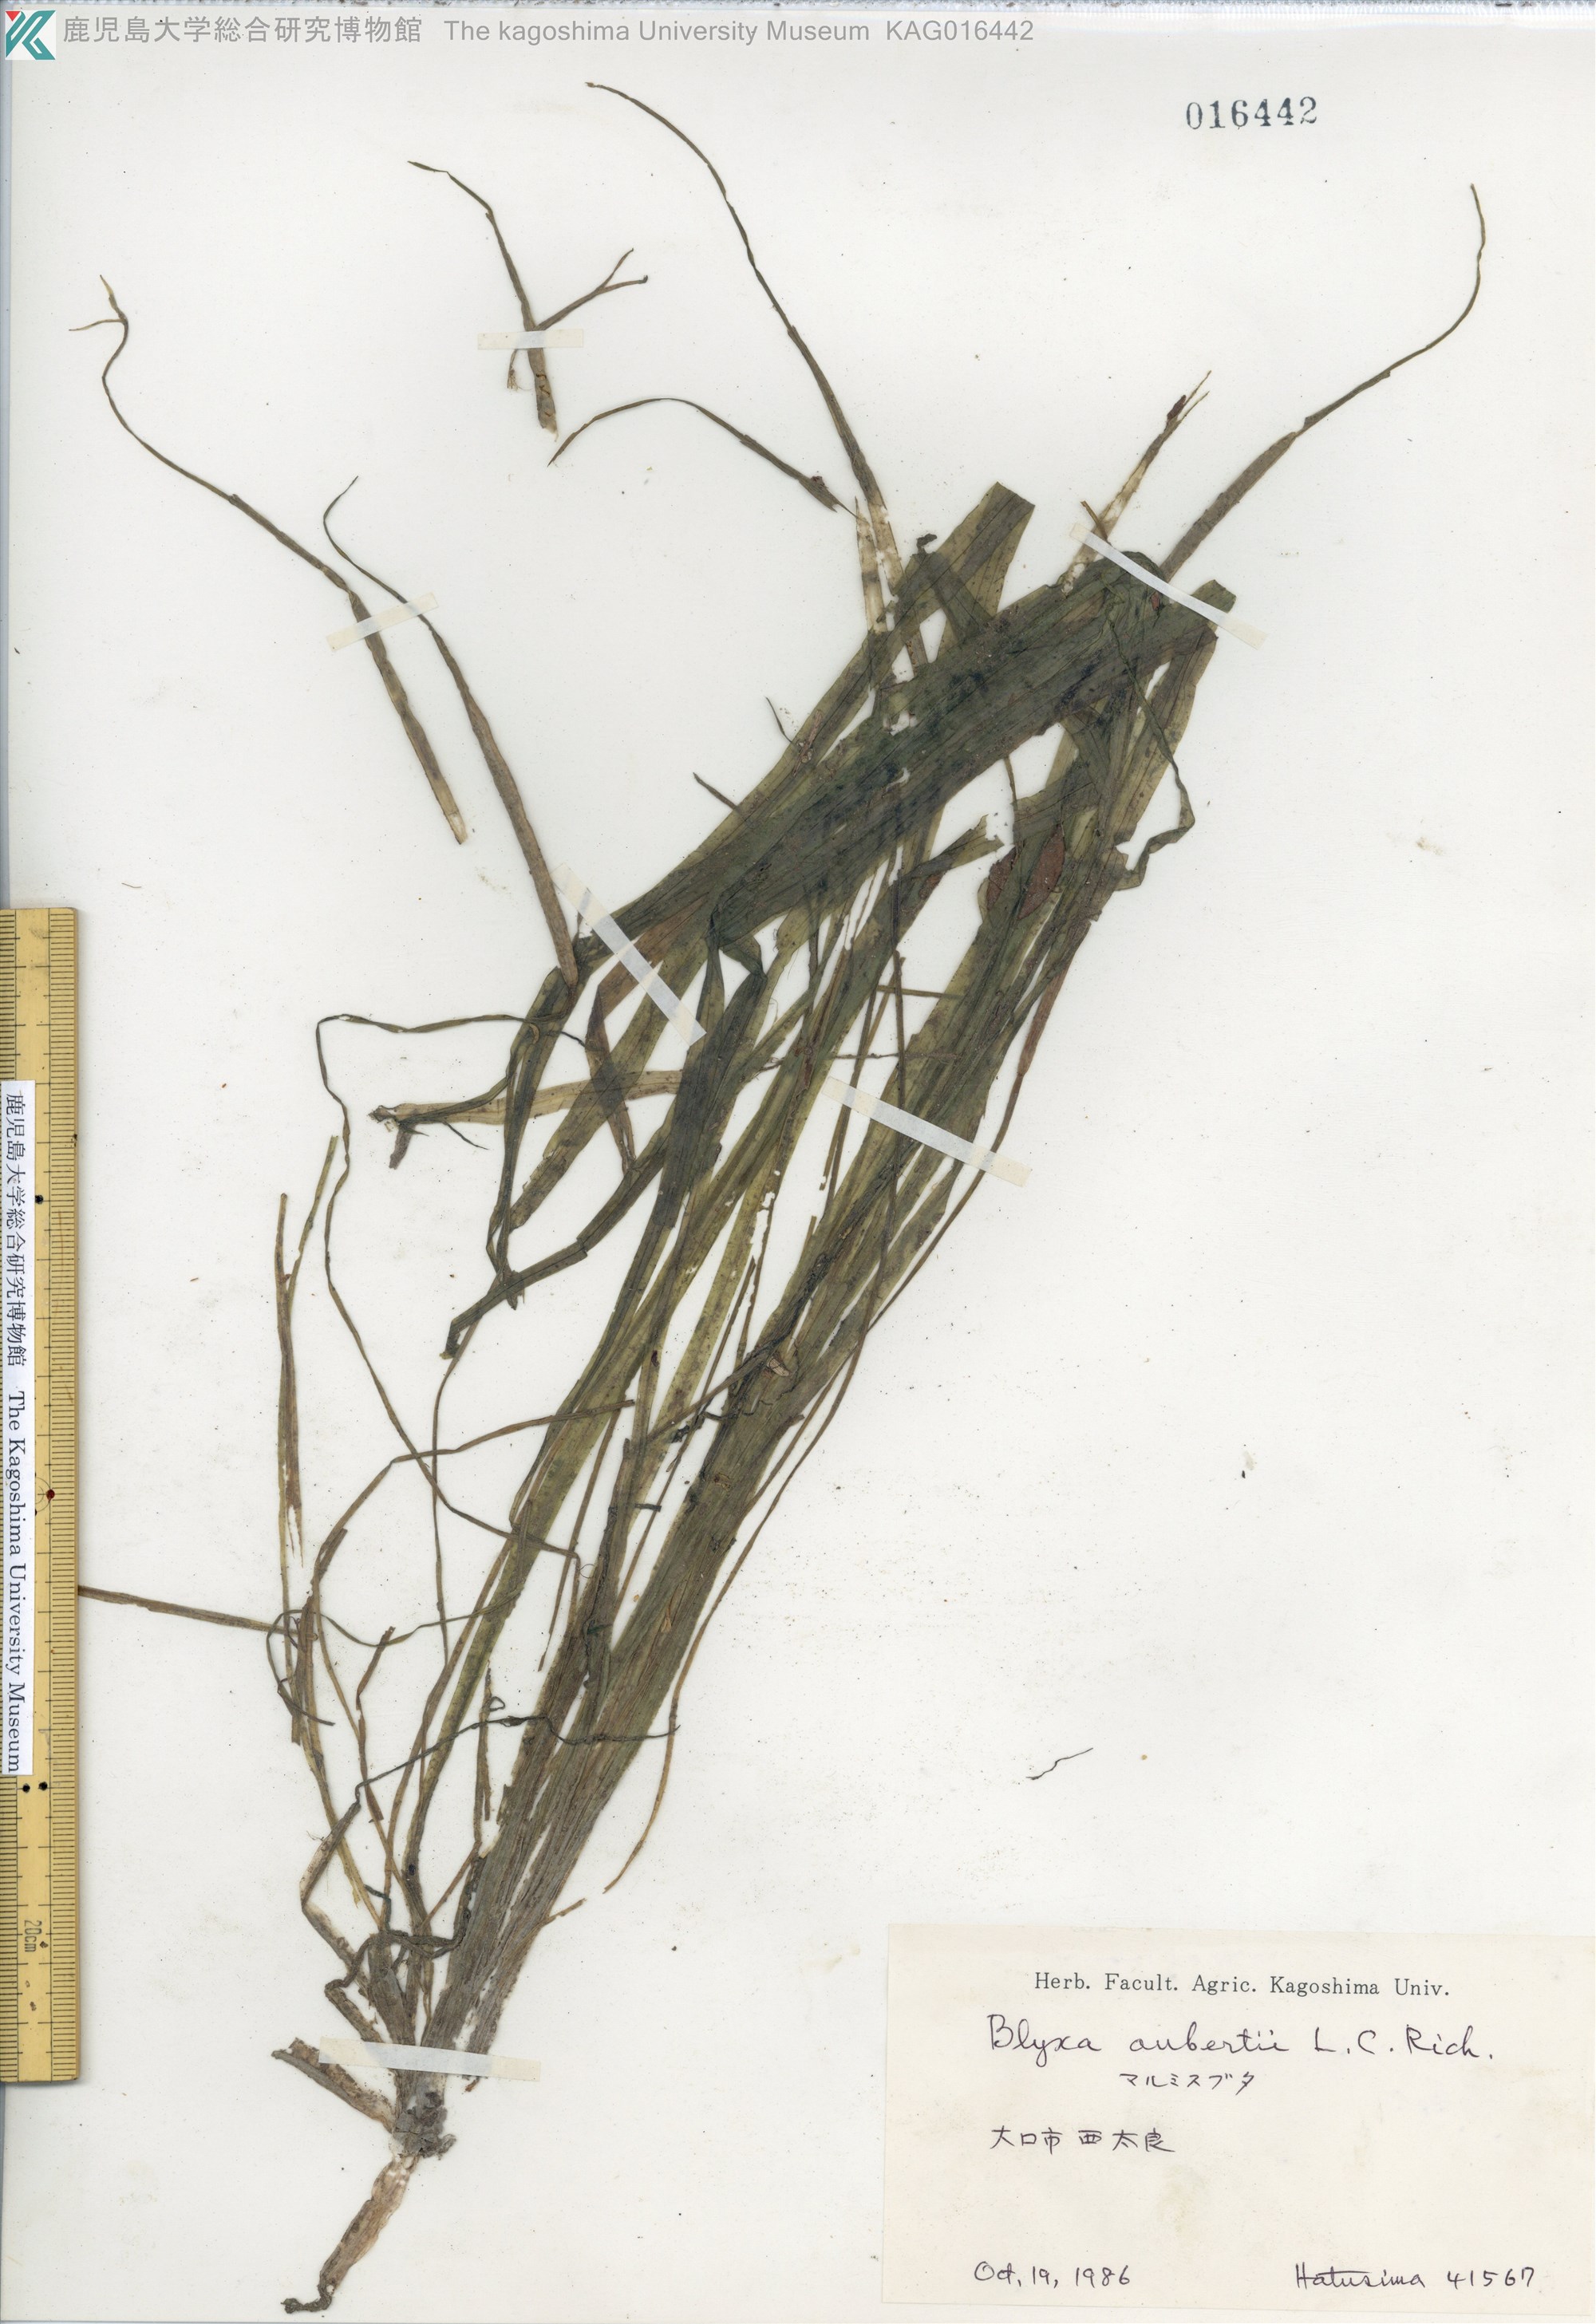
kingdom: Plantae
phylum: Tracheophyta
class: Liliopsida
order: Alismatales
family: Hydrocharitaceae
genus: Blyxa
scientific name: Blyxa aubertii
